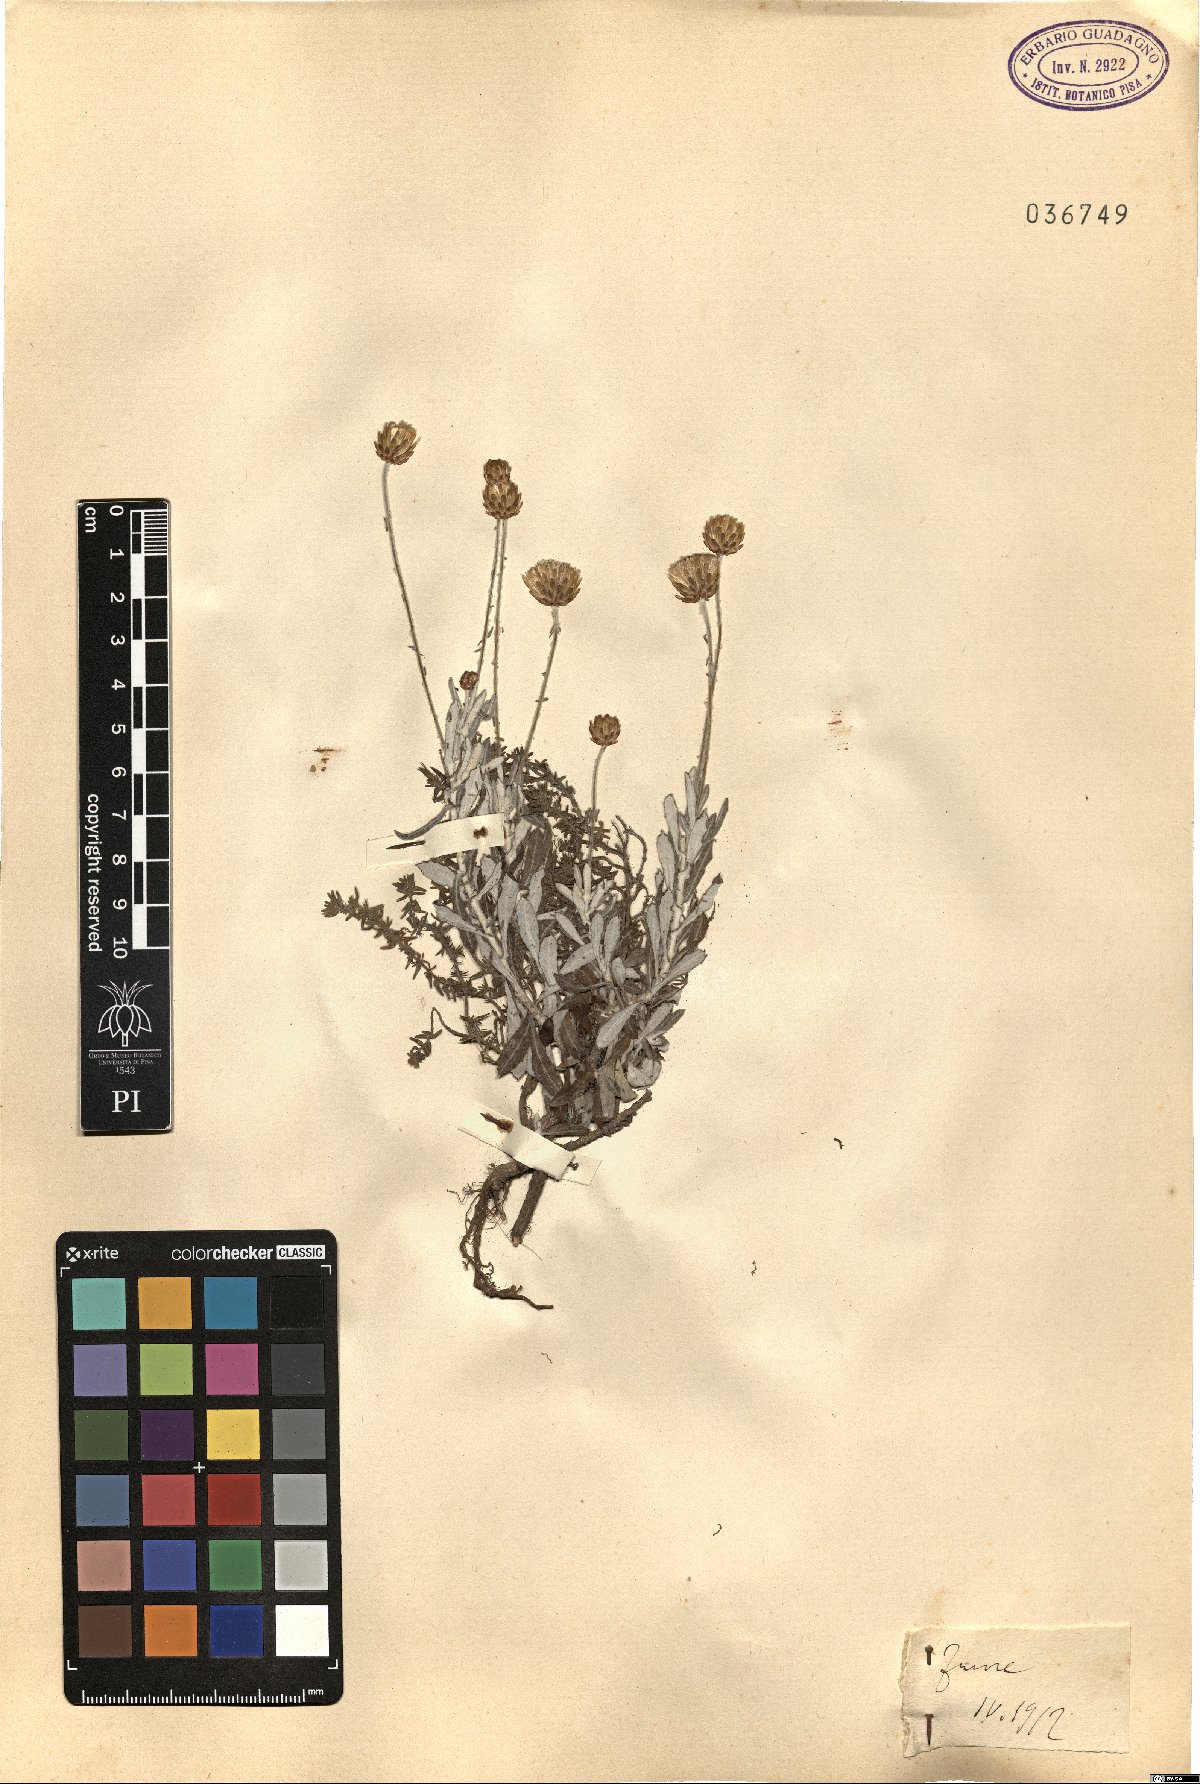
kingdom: Plantae
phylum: Tracheophyta
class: Magnoliopsida
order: Asterales
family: Asteraceae
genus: Phagnalon
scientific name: Phagnalon
